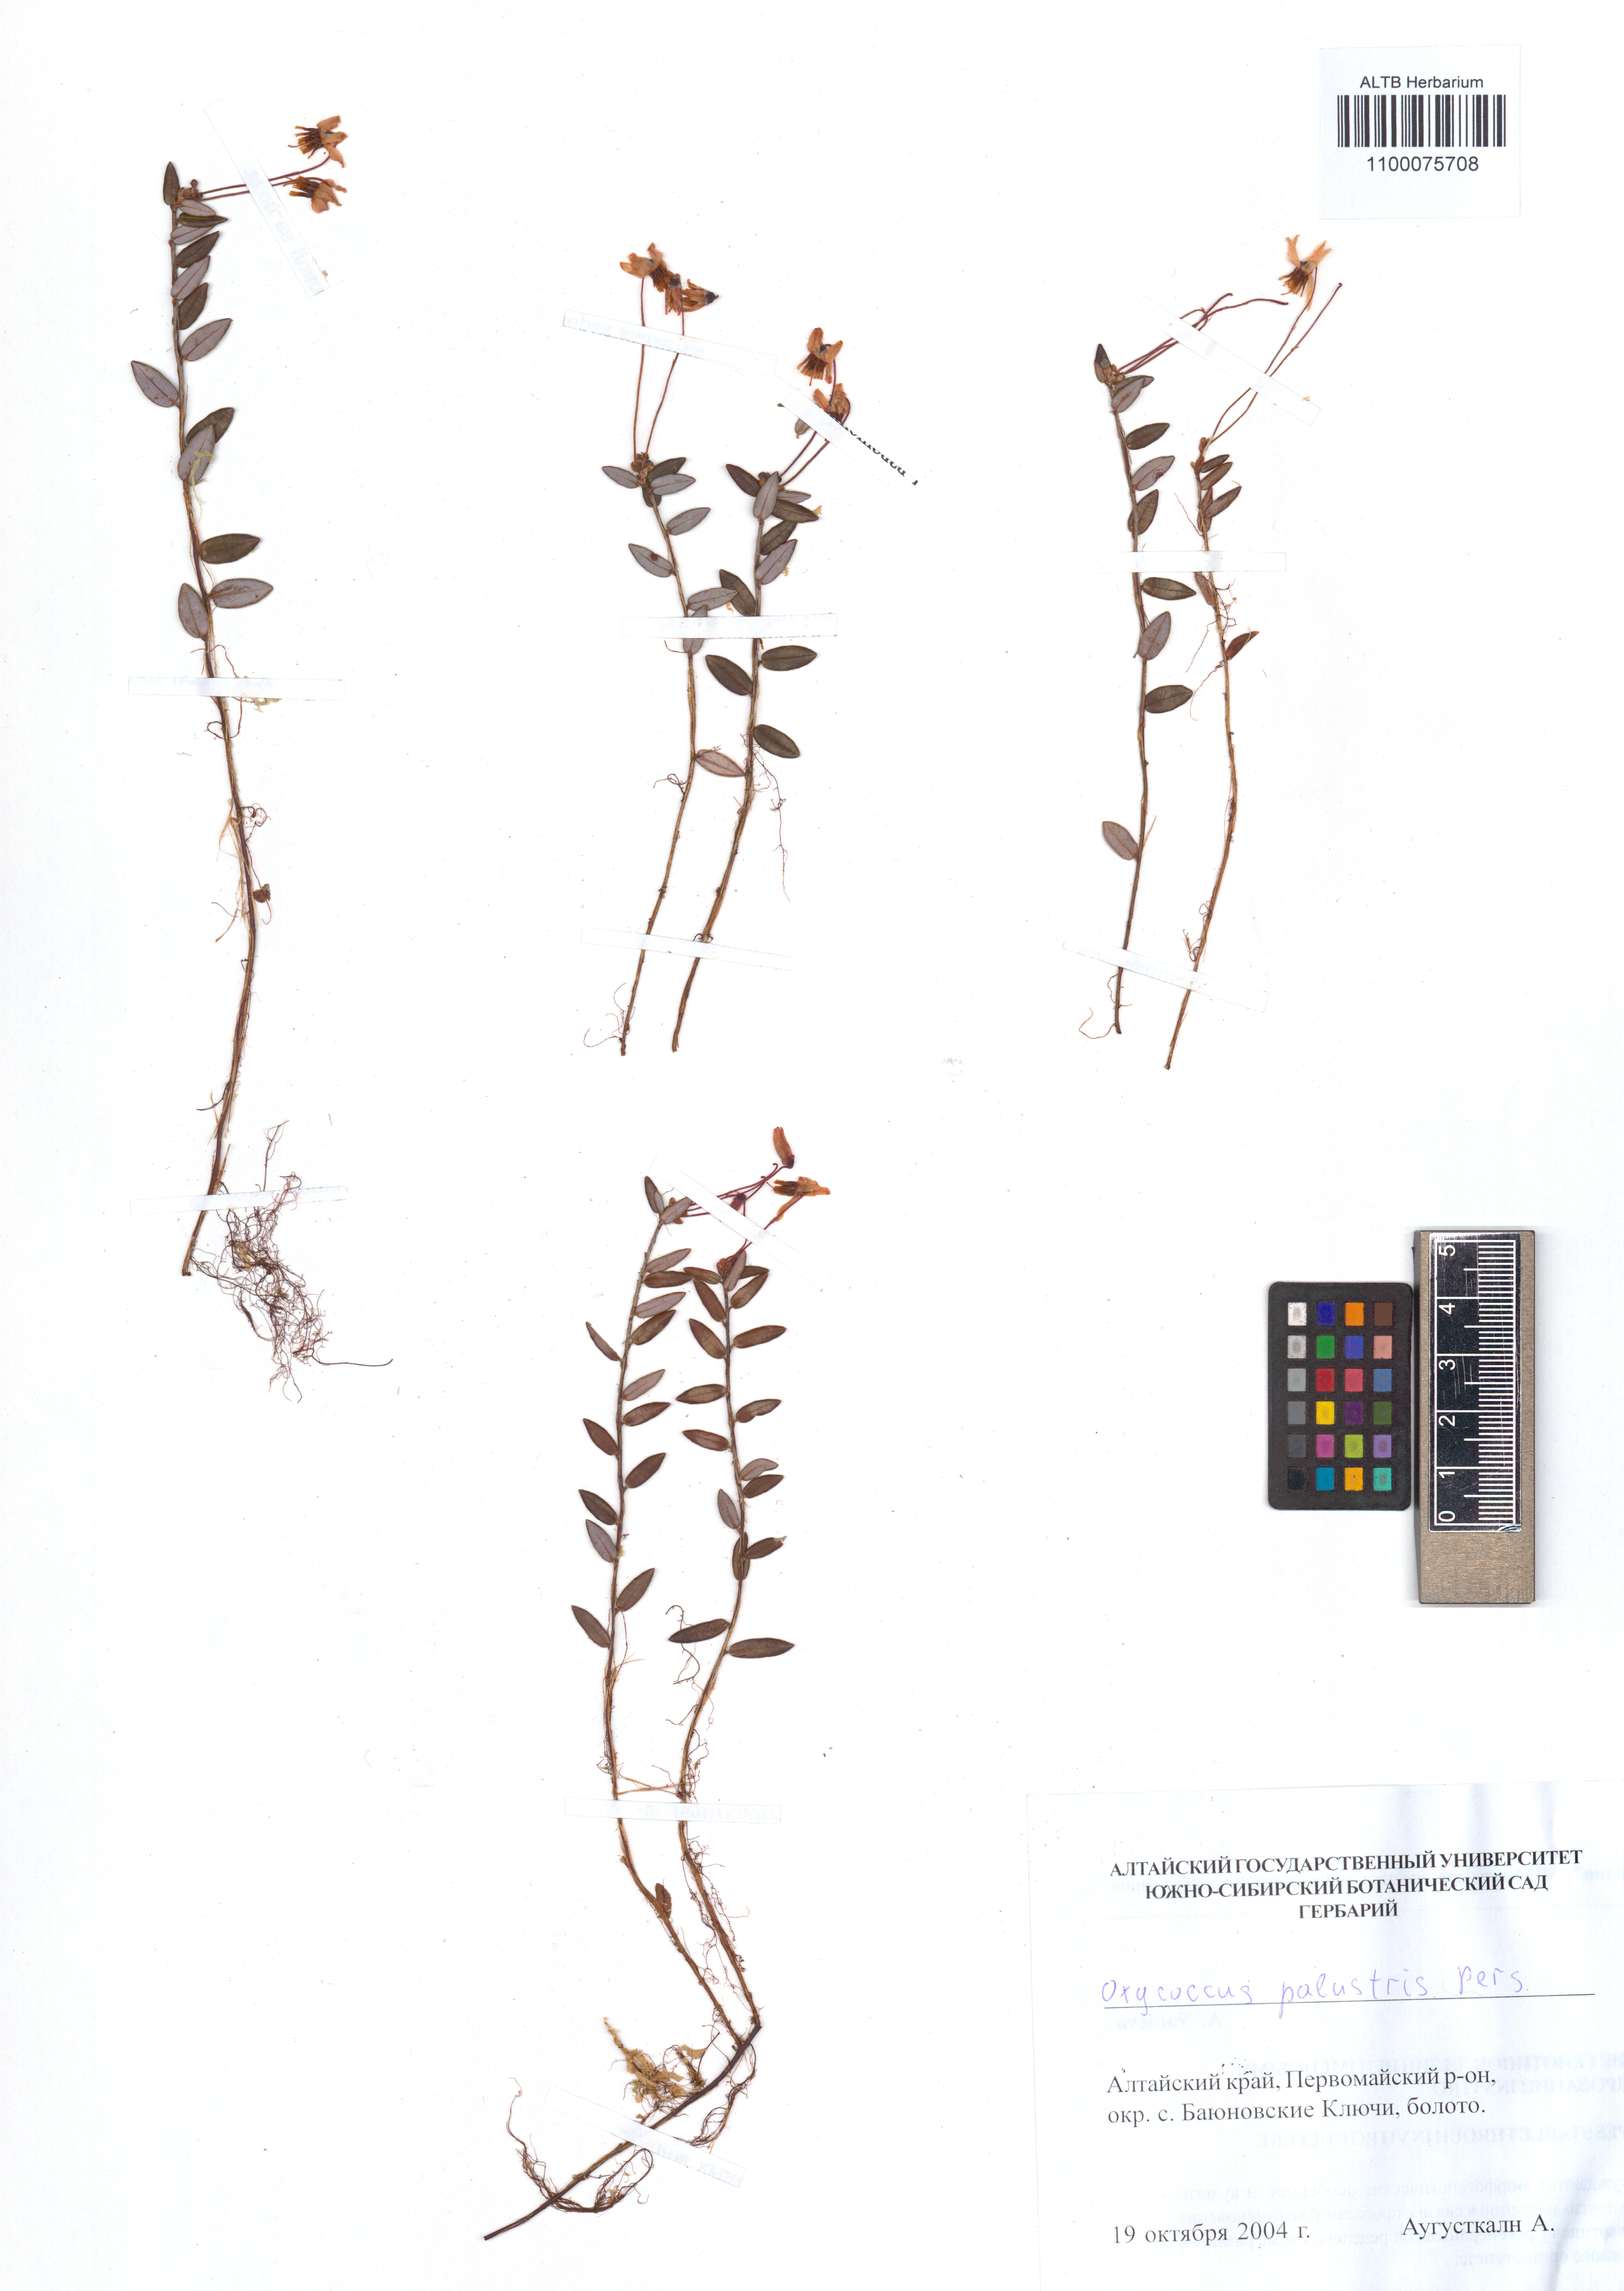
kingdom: Plantae
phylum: Tracheophyta
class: Magnoliopsida
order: Ericales
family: Ericaceae
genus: Vaccinium
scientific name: Vaccinium oxycoccos
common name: Cranberry
